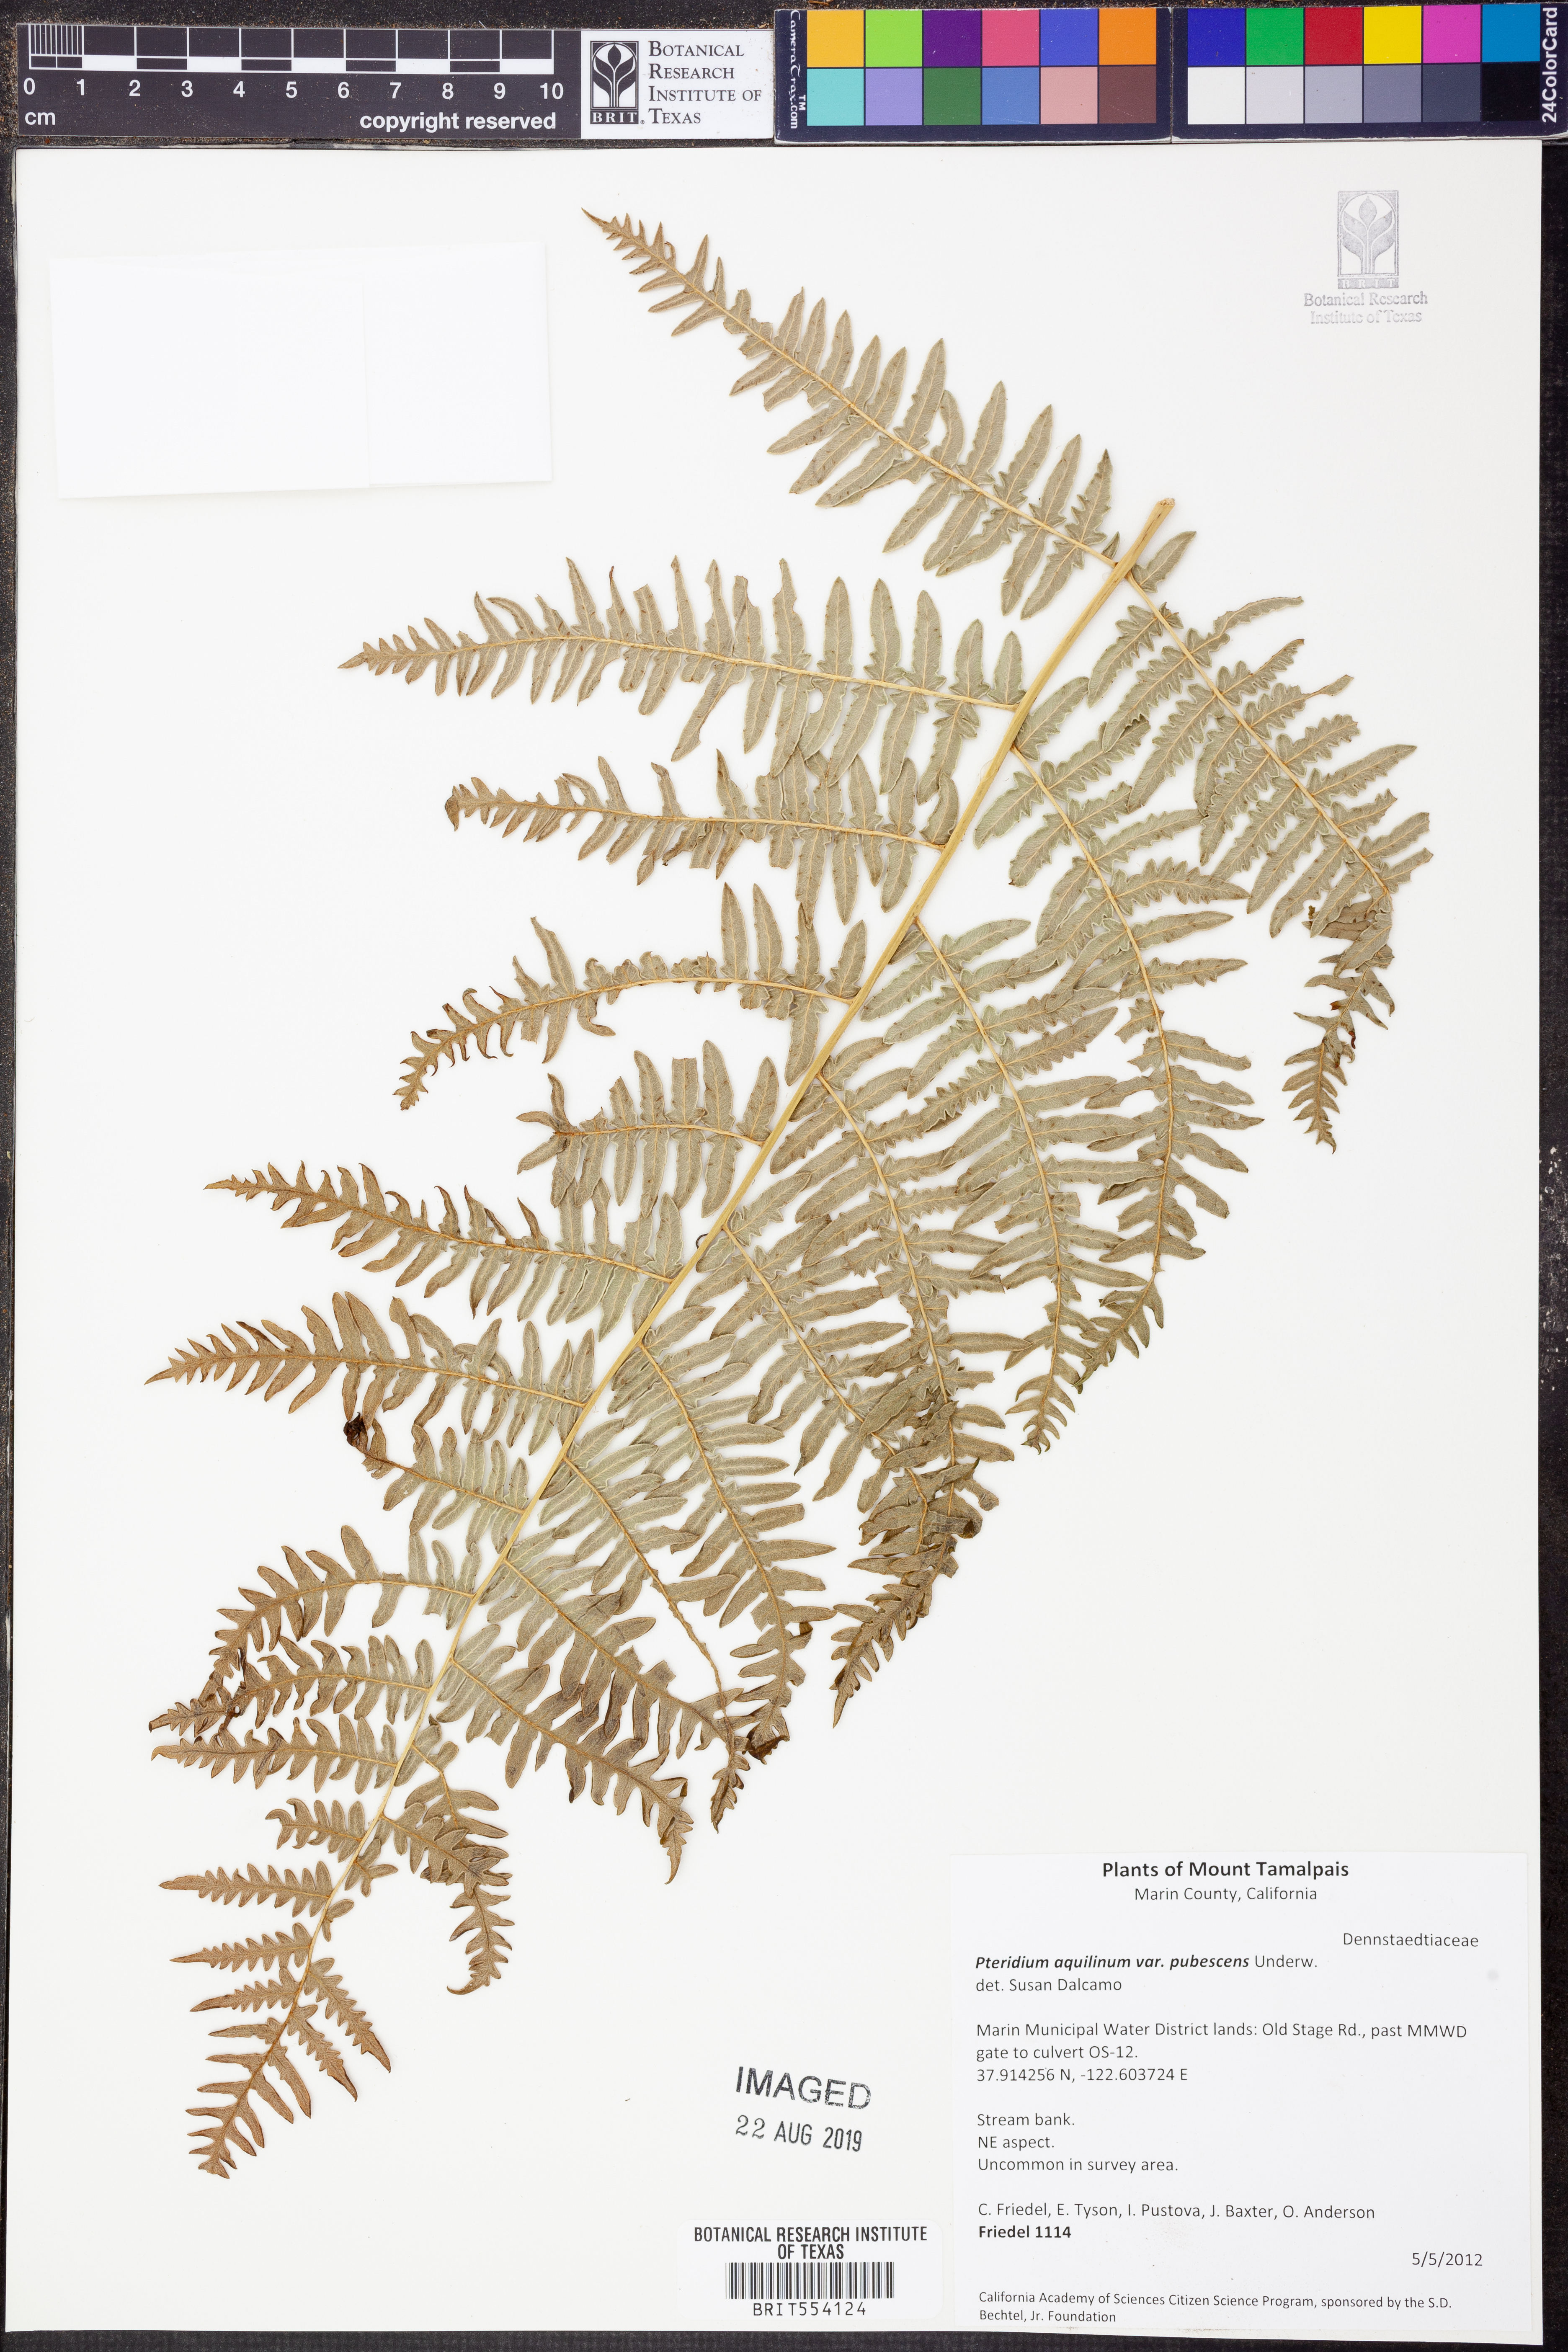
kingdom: Plantae
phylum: Tracheophyta
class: Polypodiopsida
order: Polypodiales
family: Dennstaedtiaceae
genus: Pteridium
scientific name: Pteridium aquilinum
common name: Bracken
